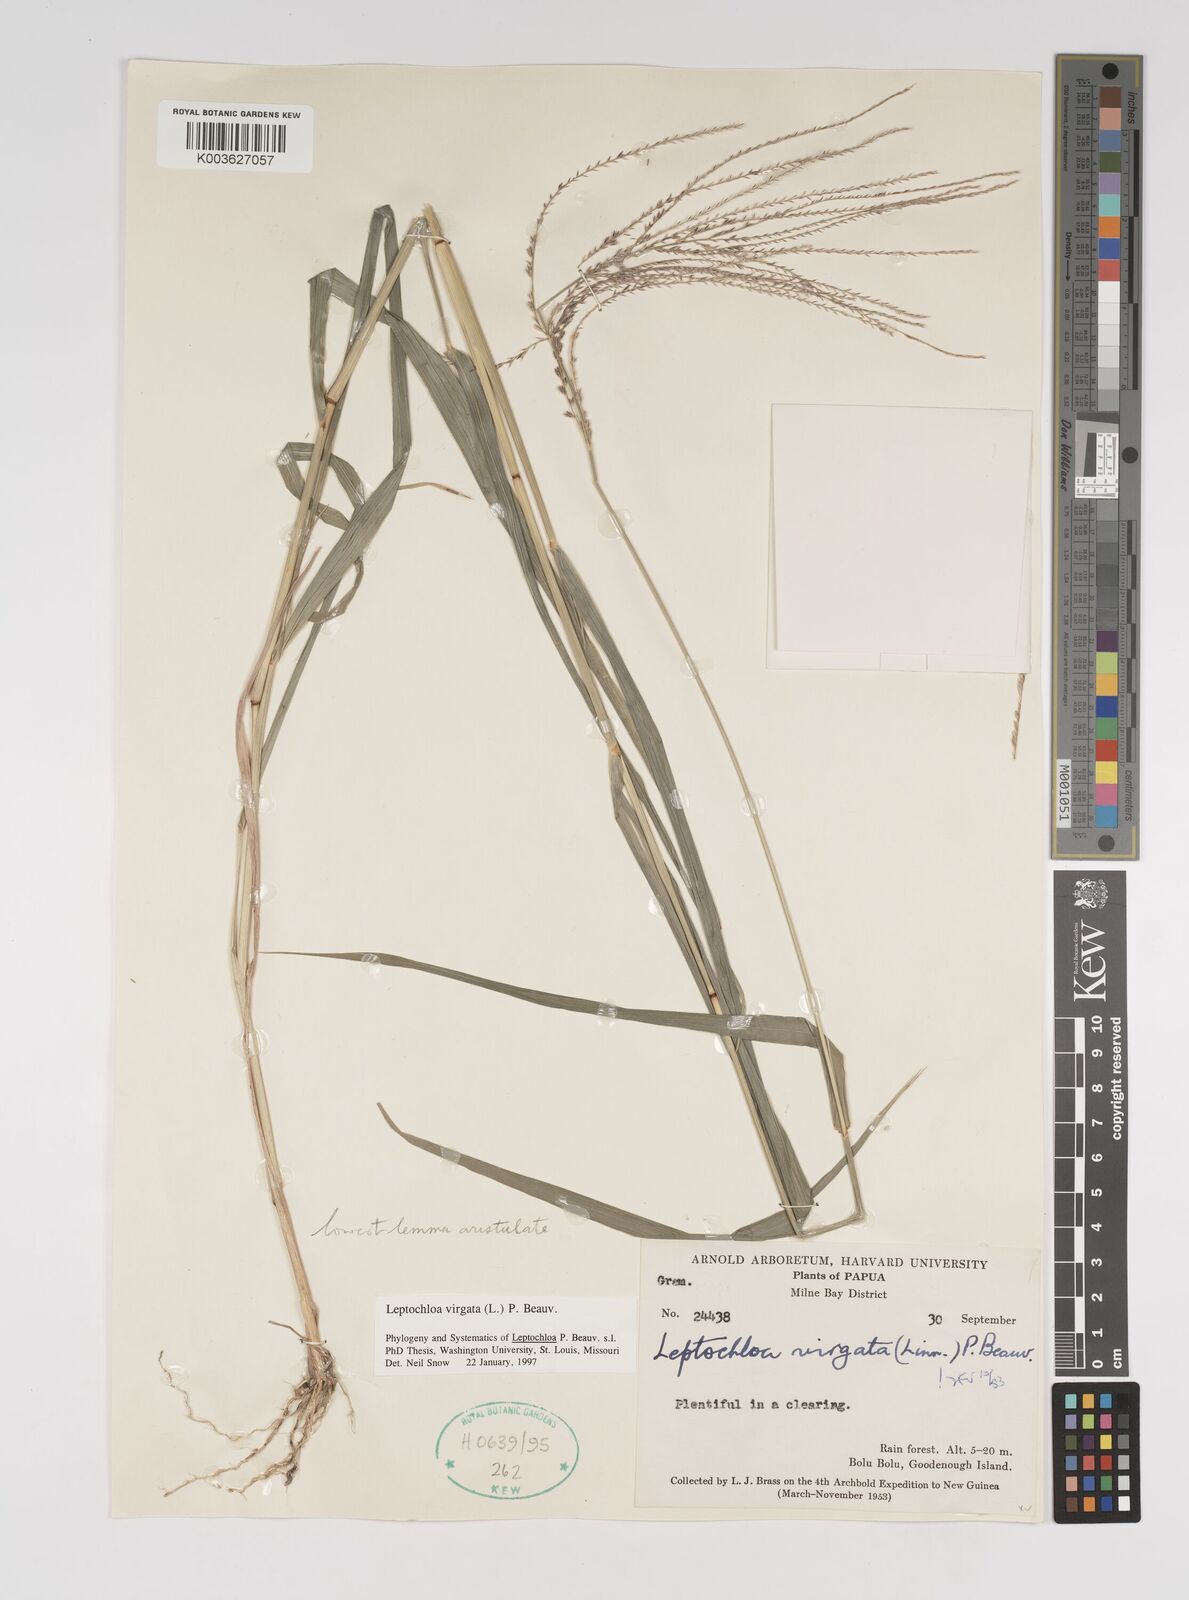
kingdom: Plantae
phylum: Tracheophyta
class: Liliopsida
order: Poales
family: Poaceae
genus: Leptochloa
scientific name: Leptochloa
